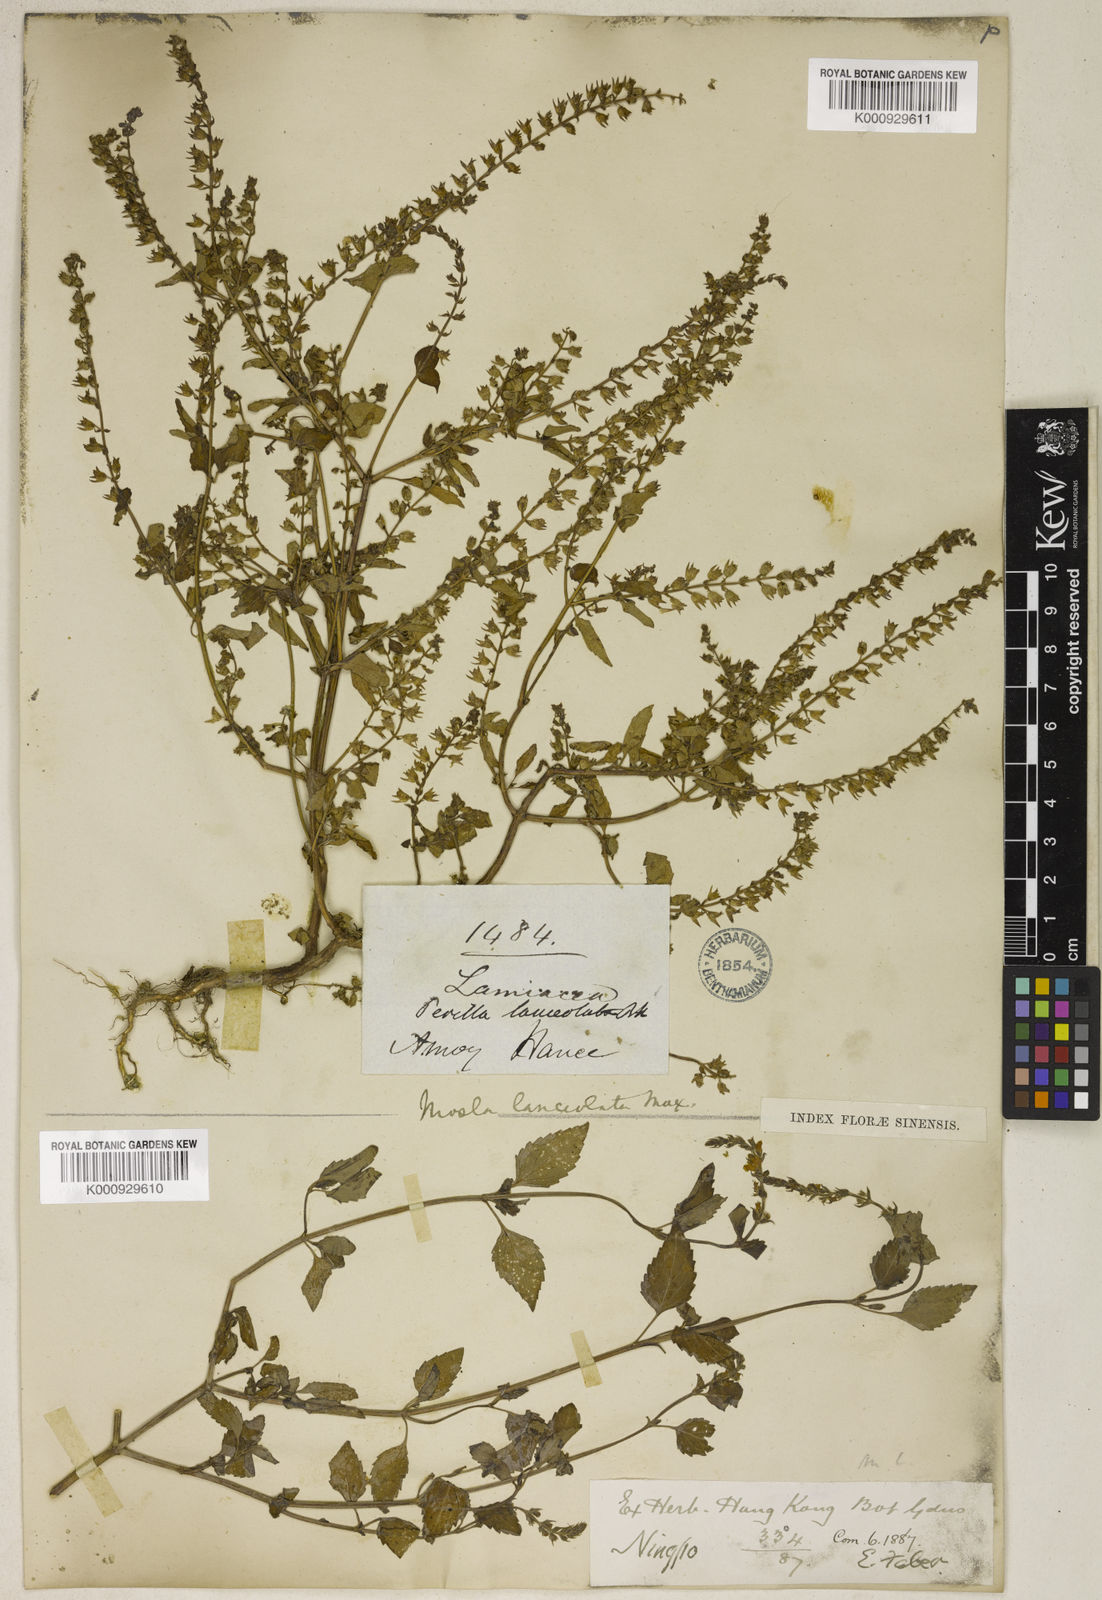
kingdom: Plantae
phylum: Tracheophyta
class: Magnoliopsida
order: Lamiales
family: Lamiaceae
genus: Mosla
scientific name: Mosla scabra
